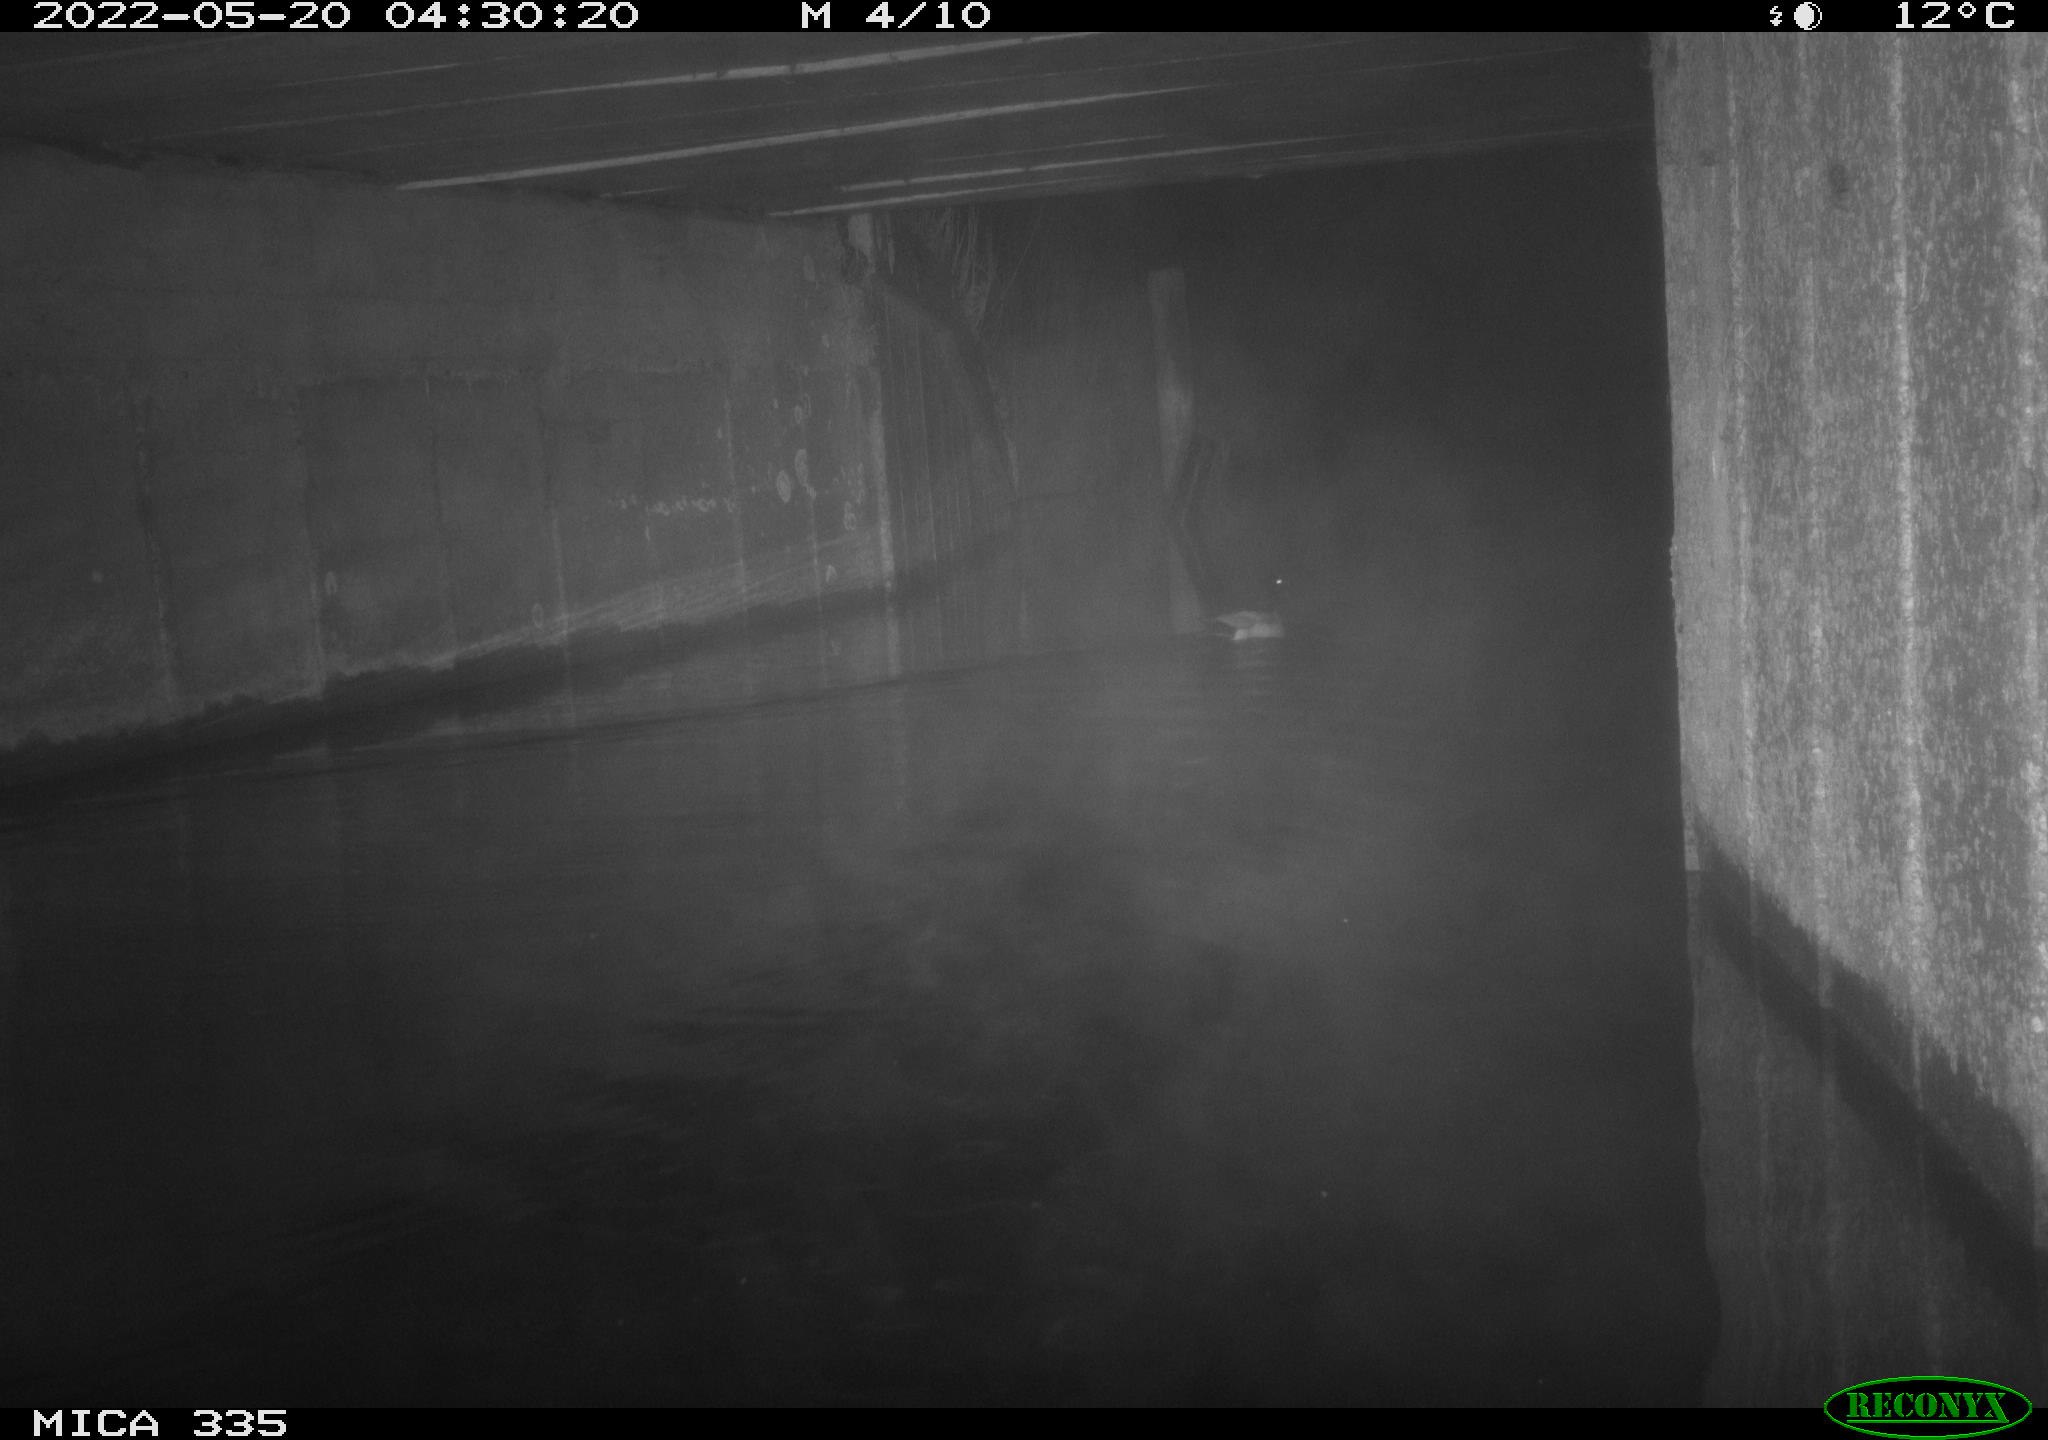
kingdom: Animalia
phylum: Chordata
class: Aves
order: Anseriformes
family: Anatidae
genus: Anas
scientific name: Anas platyrhynchos
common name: Mallard
